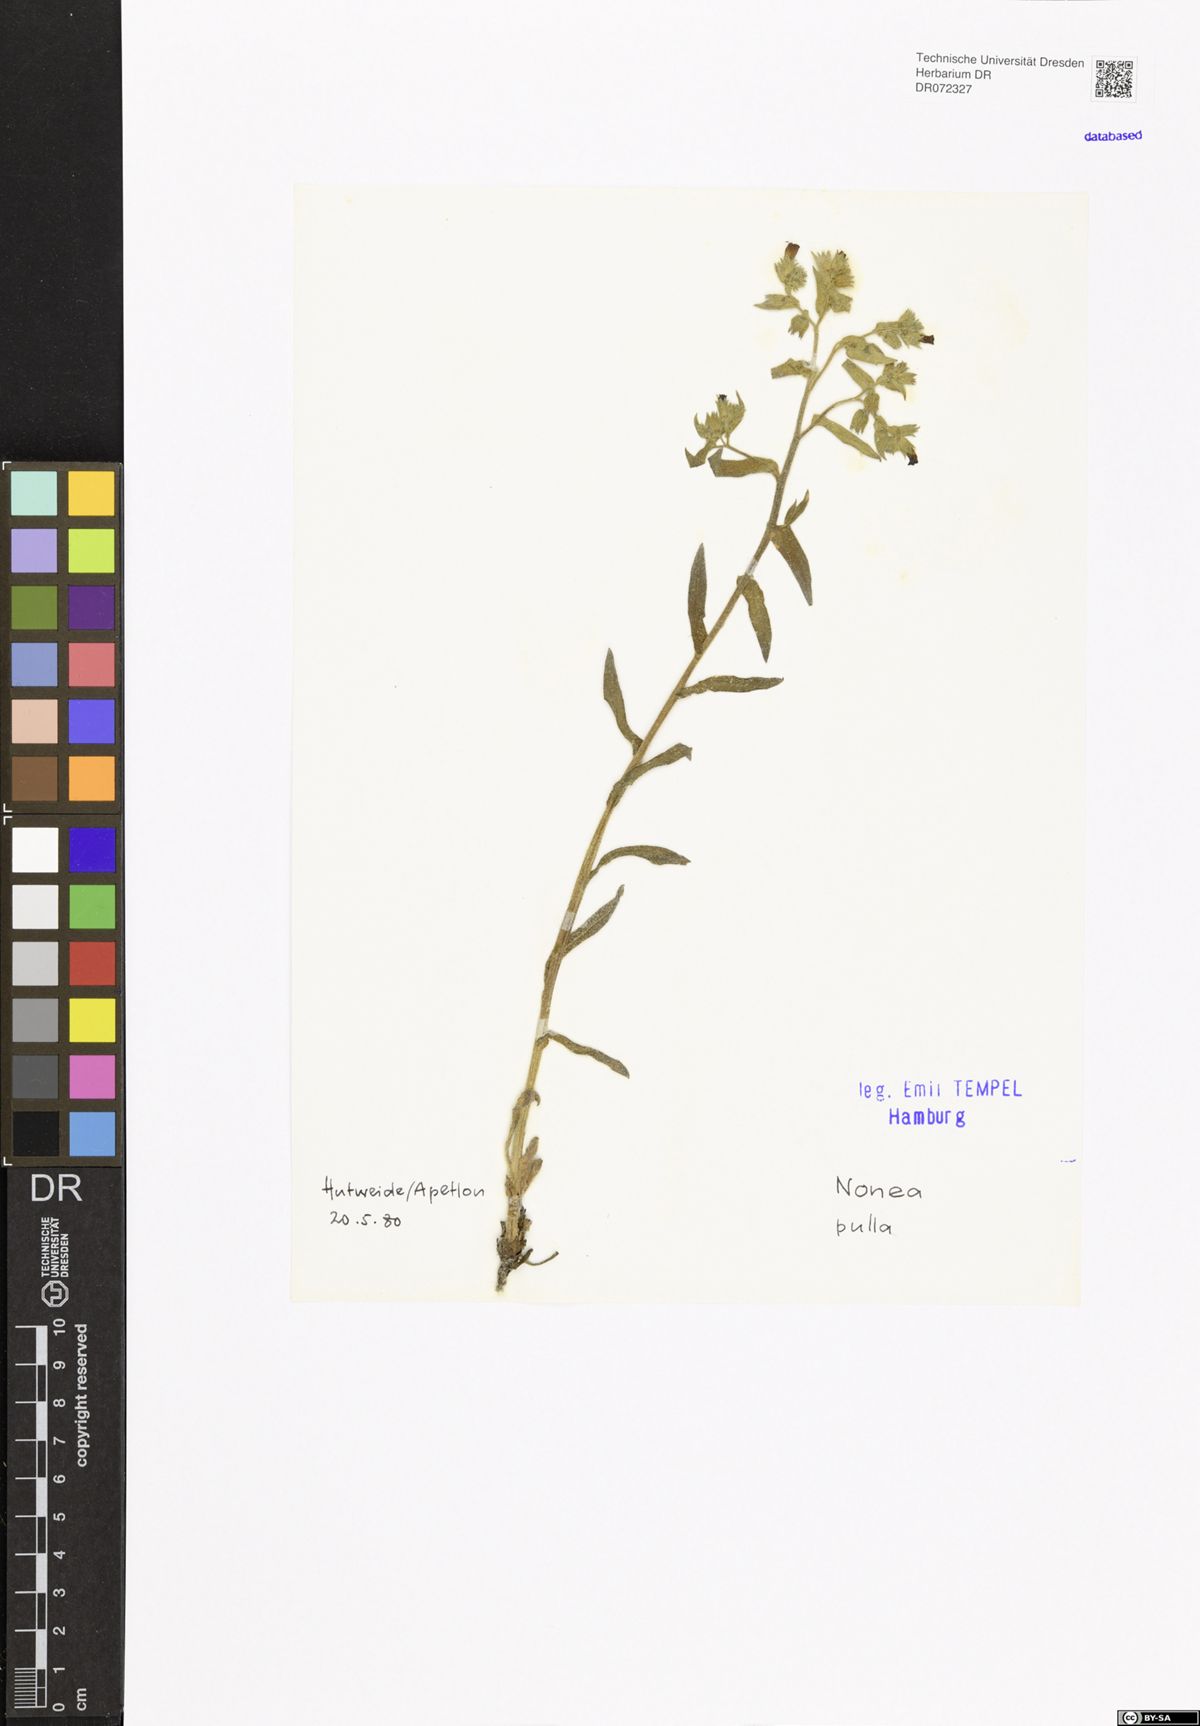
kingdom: Plantae
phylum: Tracheophyta
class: Magnoliopsida
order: Boraginales
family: Boraginaceae
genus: Nonea
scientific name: Nonea pulla
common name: Brown nonea
